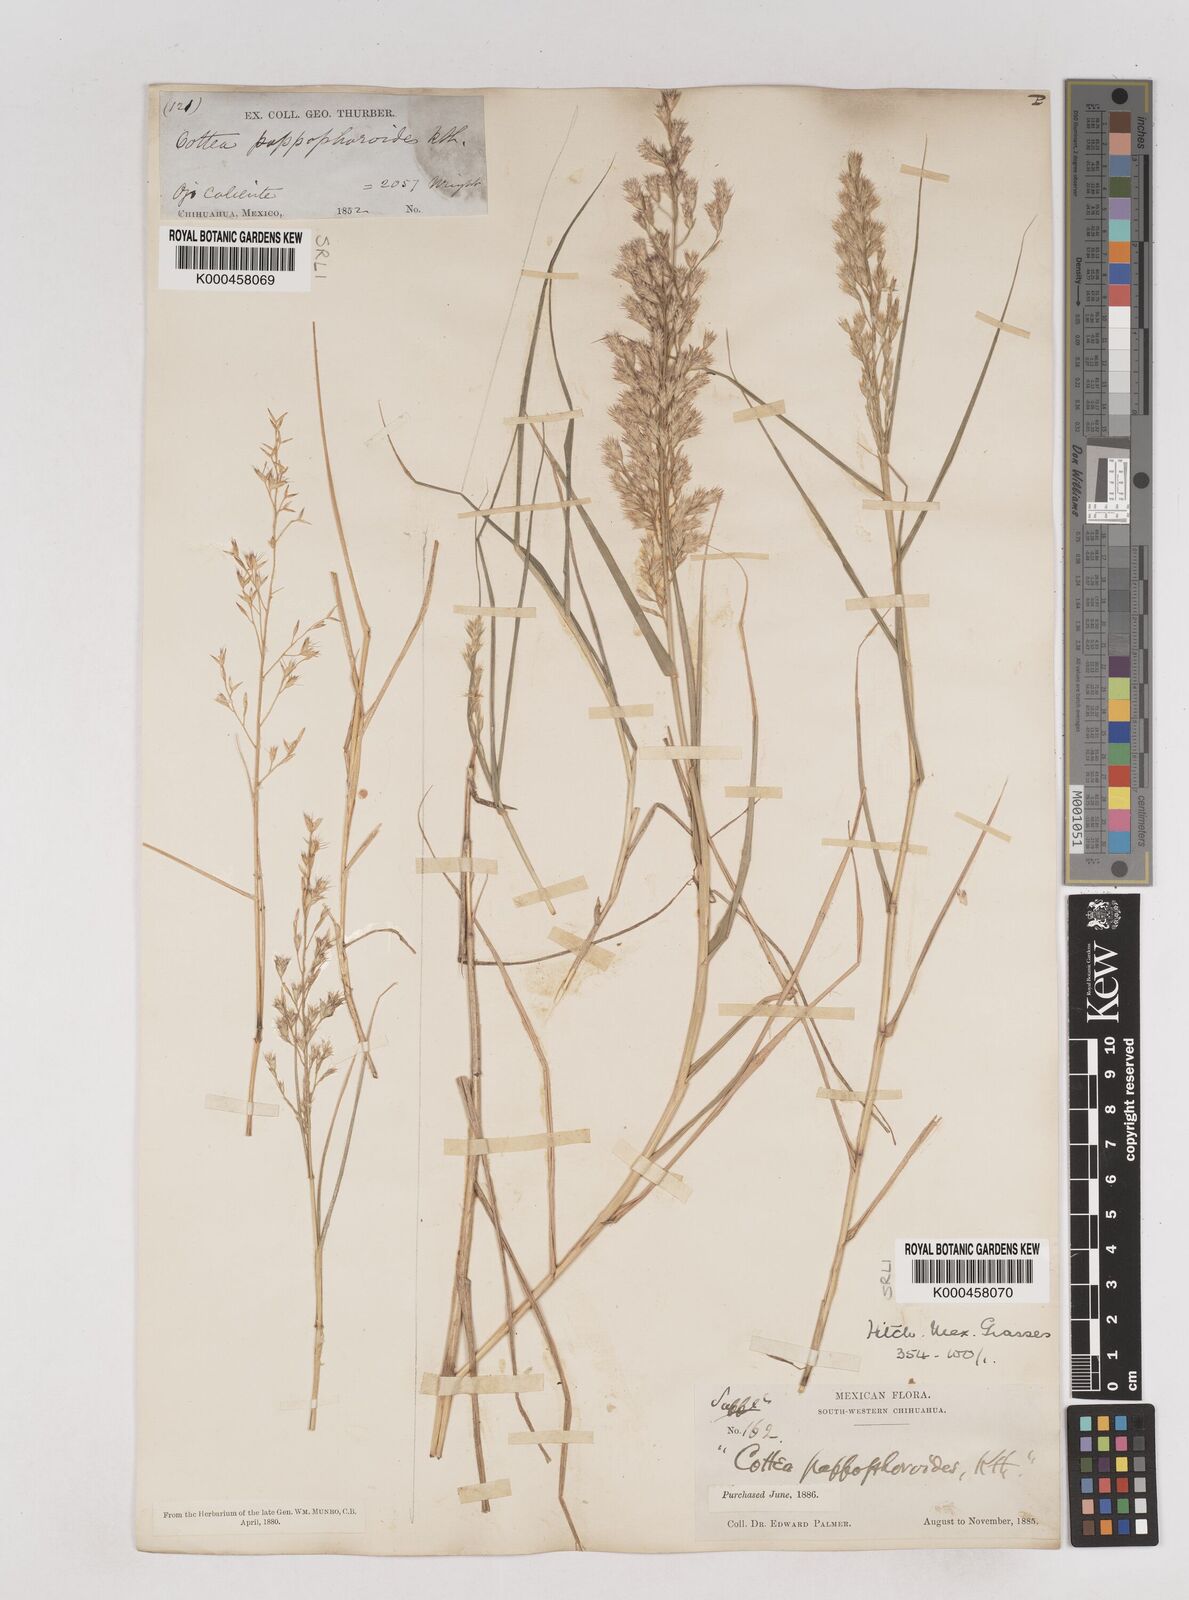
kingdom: Plantae
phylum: Tracheophyta
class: Liliopsida
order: Poales
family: Poaceae
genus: Cottea
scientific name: Cottea
